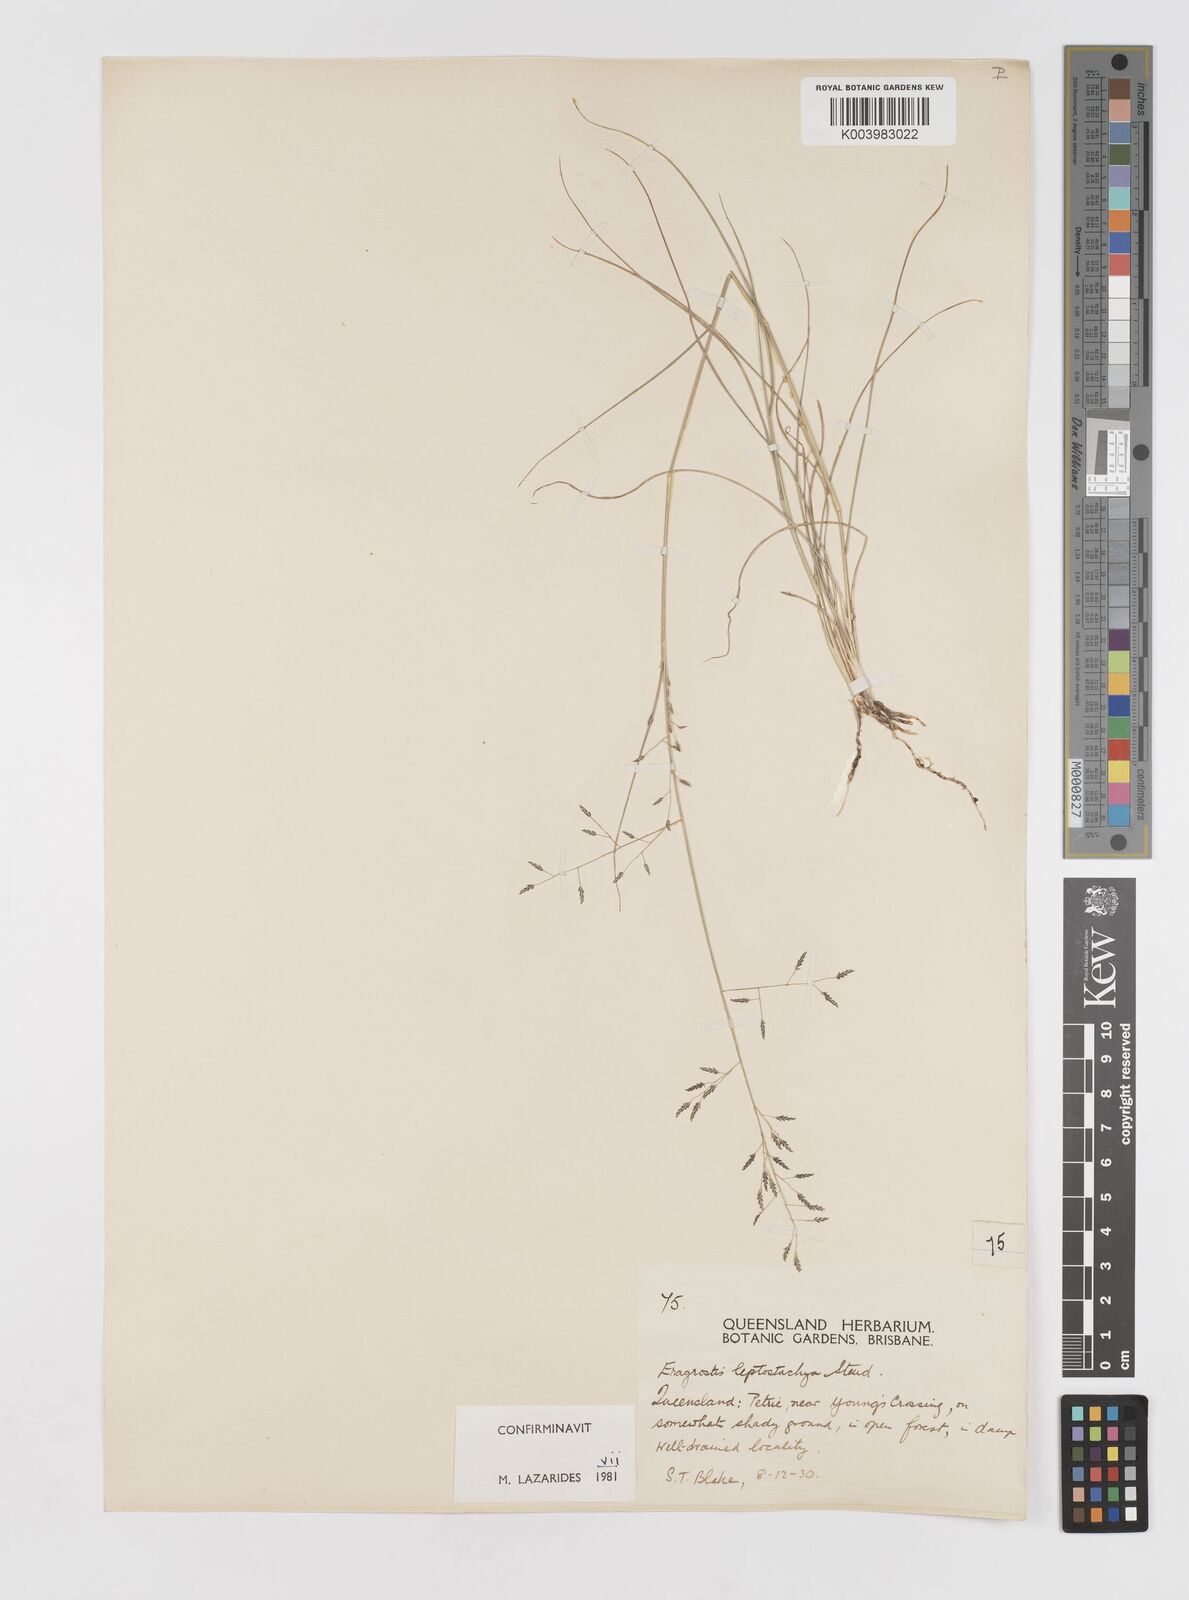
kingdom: Plantae
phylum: Tracheophyta
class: Liliopsida
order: Poales
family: Poaceae
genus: Eragrostis
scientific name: Eragrostis leptostachya
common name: Australian lovegrass
